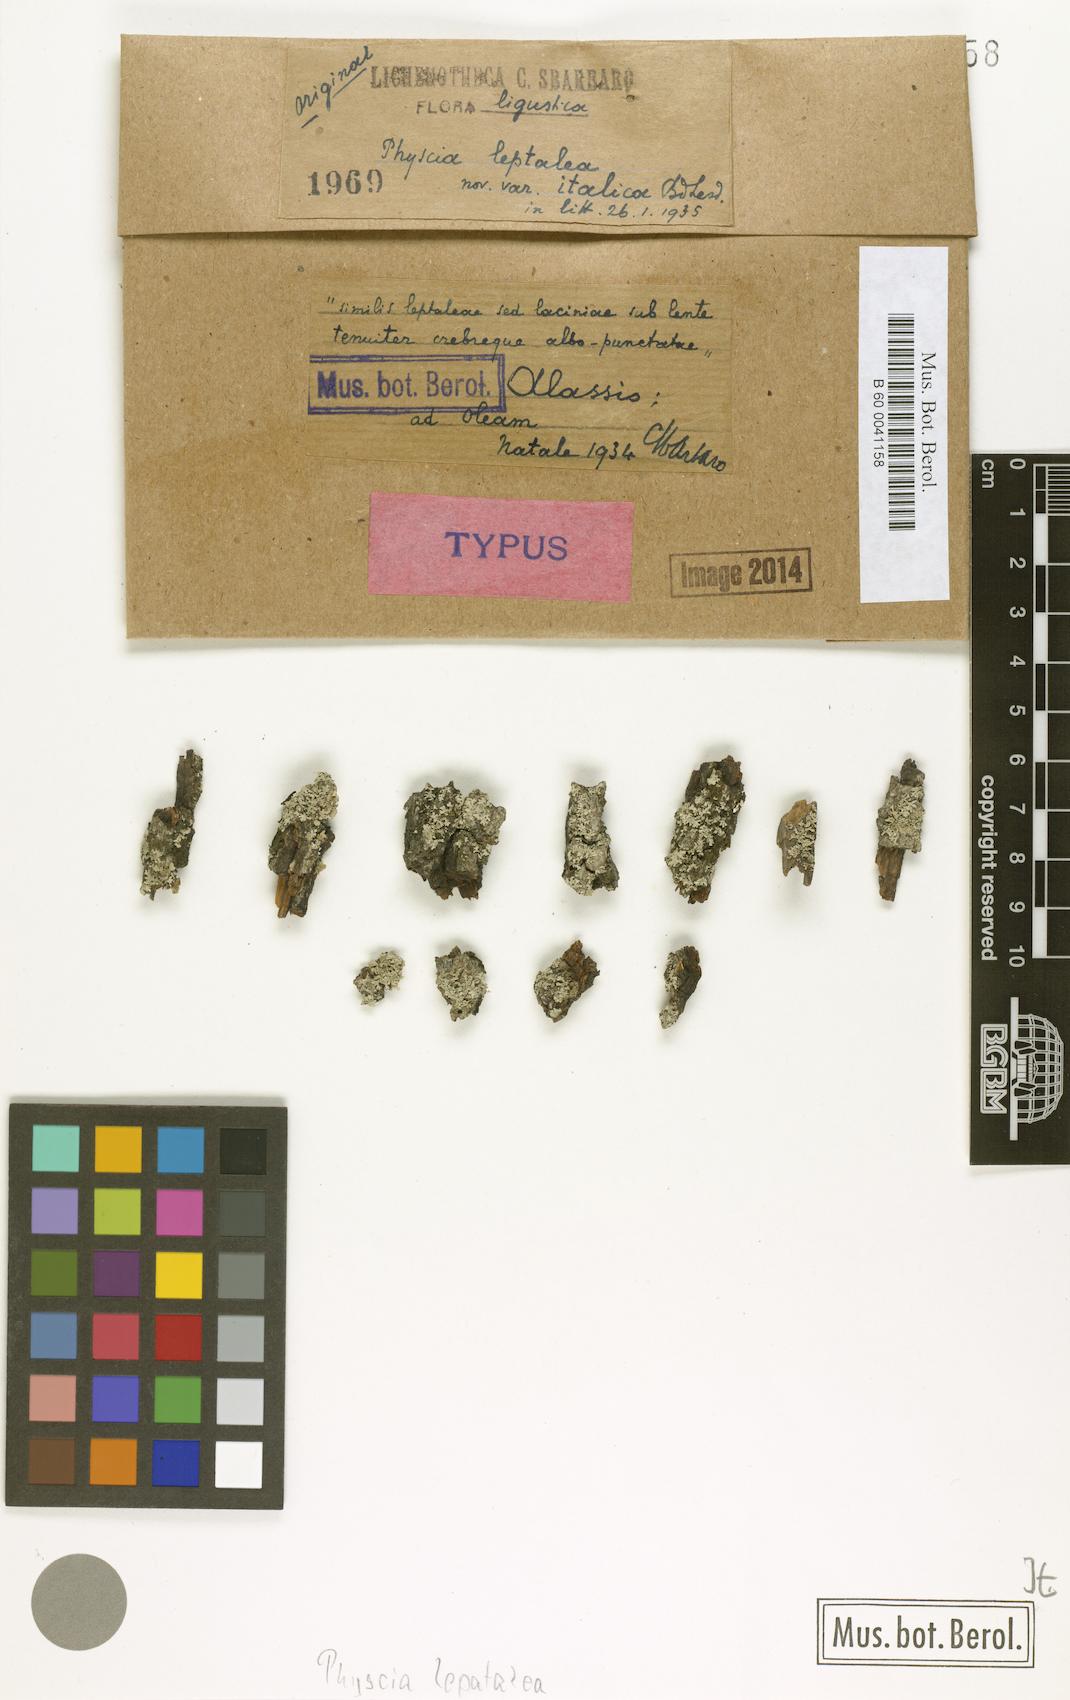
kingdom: Fungi
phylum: Ascomycota
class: Lecanoromycetes
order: Caliciales
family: Physciaceae
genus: Physcia
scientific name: Physcia leptalea
